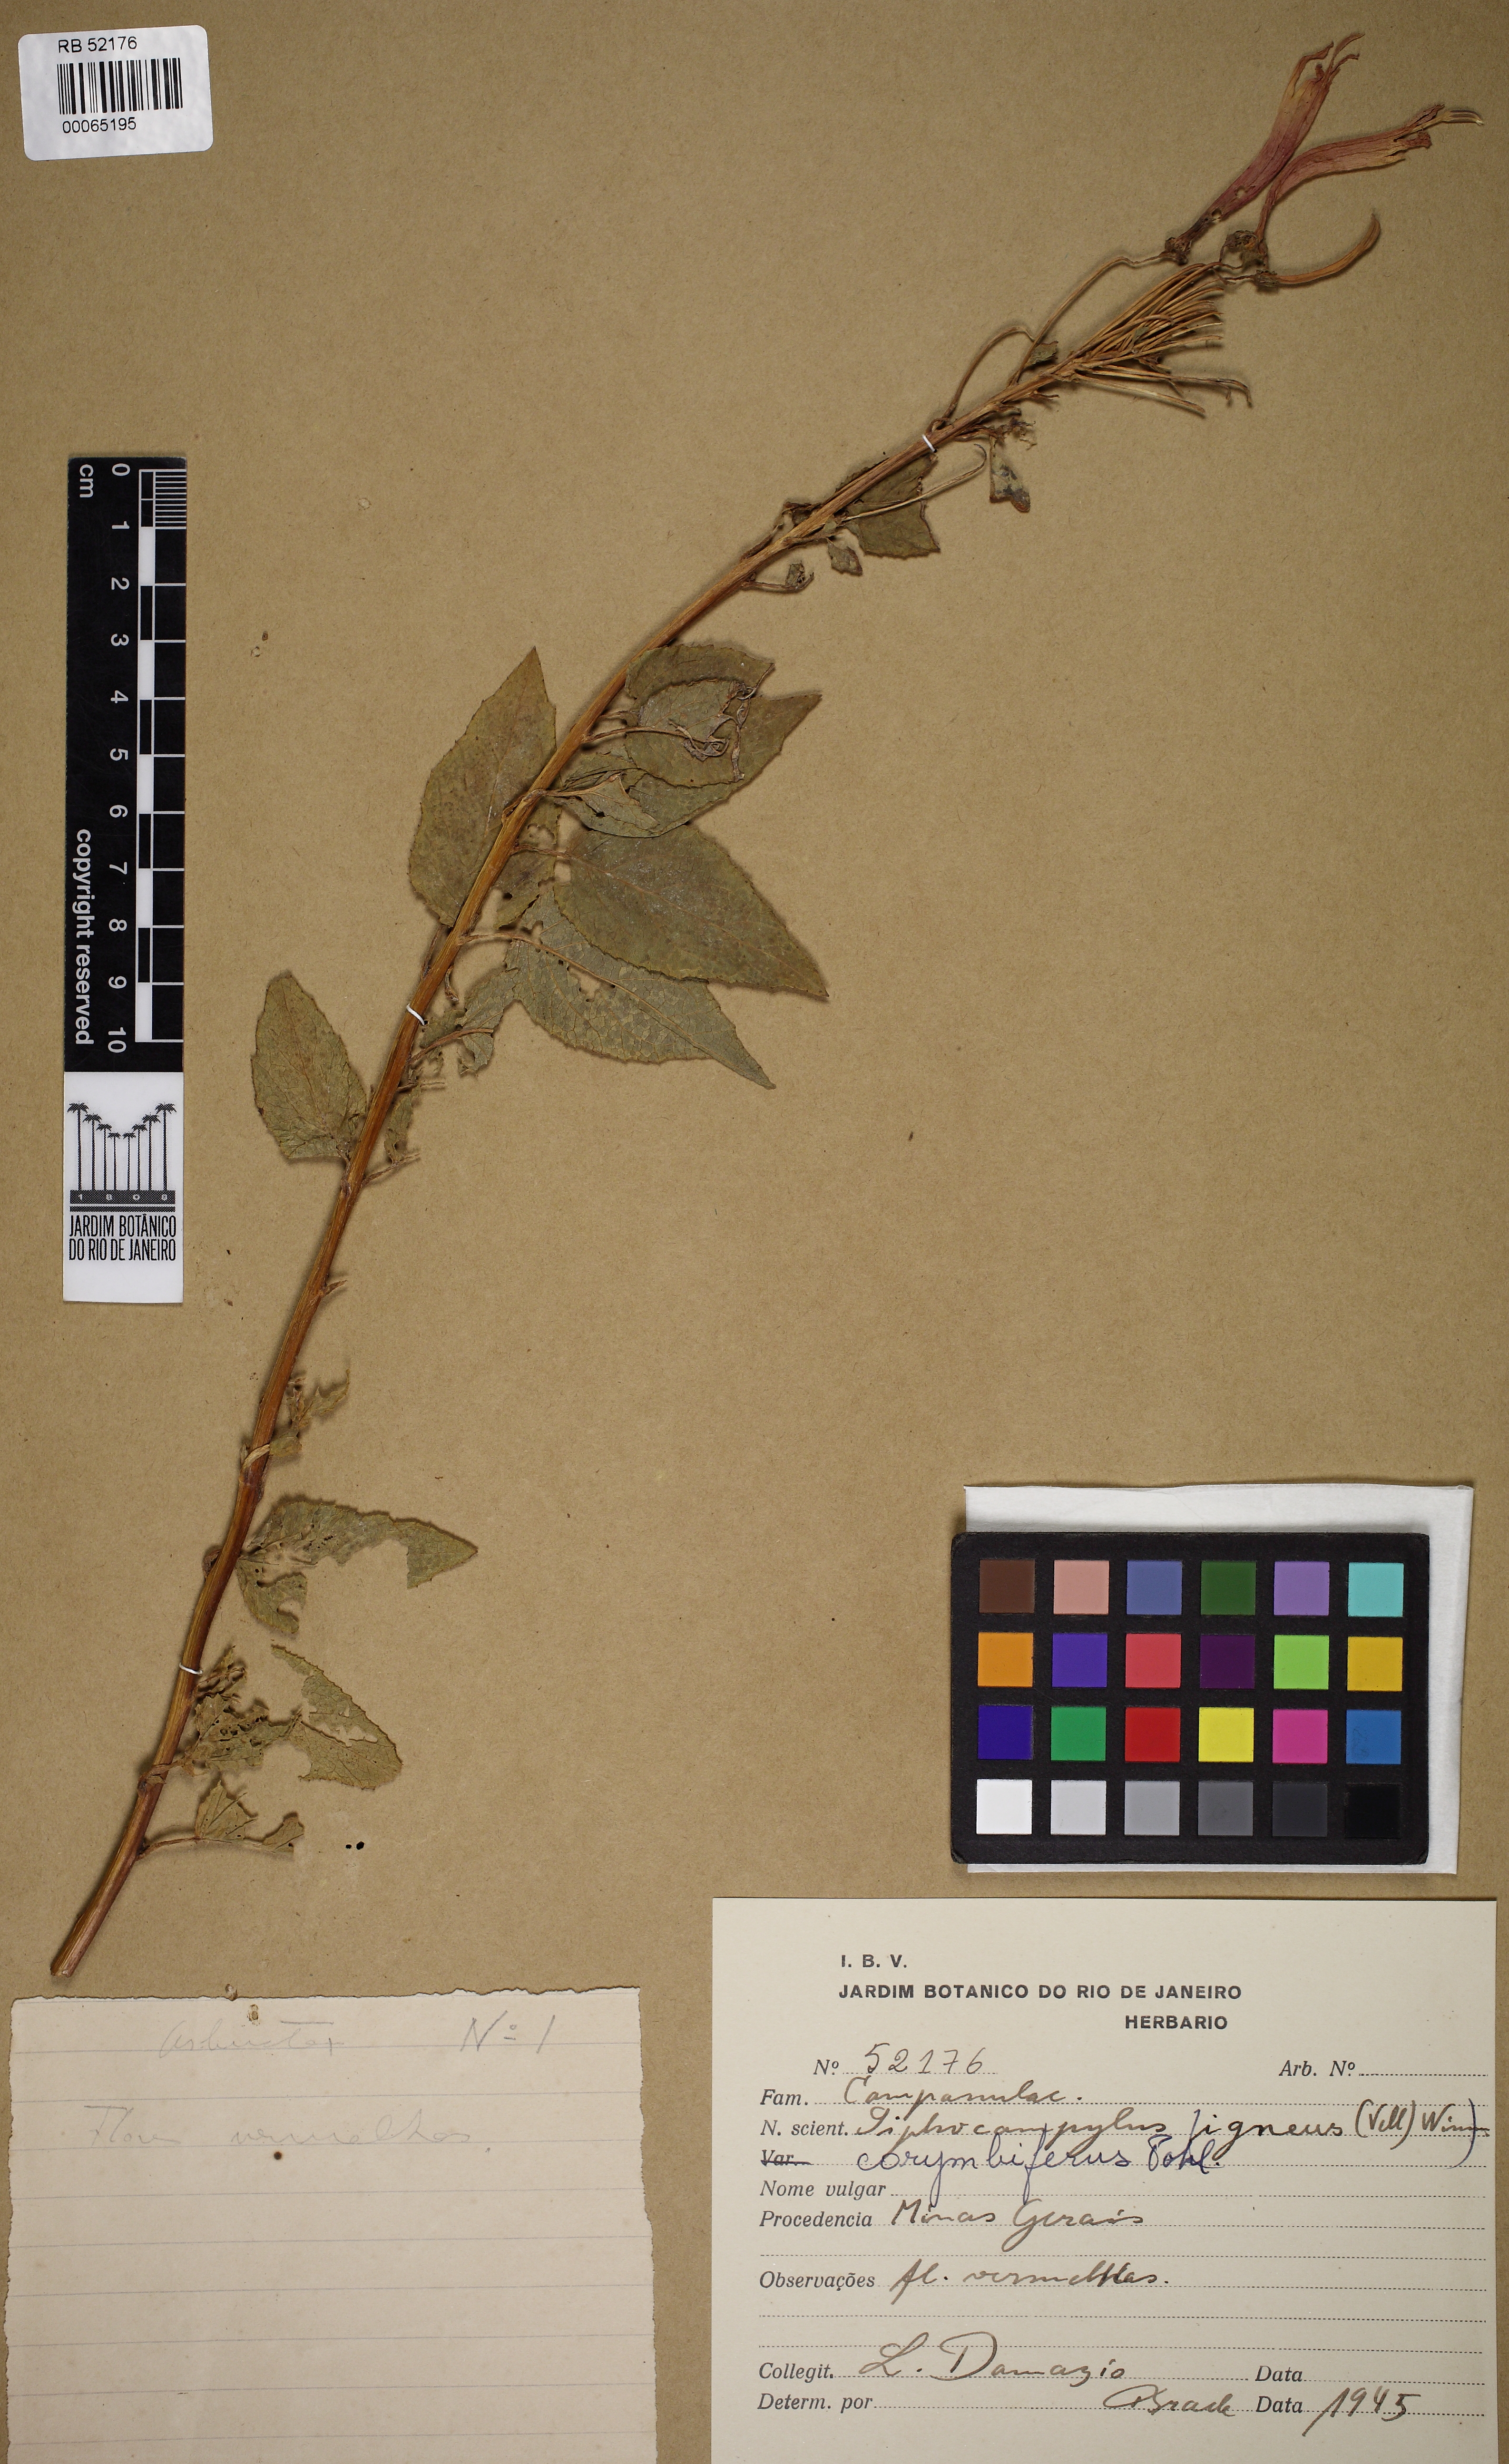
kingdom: Plantae
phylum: Tracheophyta
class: Magnoliopsida
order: Asterales
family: Campanulaceae
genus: Siphocampylus
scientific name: Siphocampylus corymbifer
